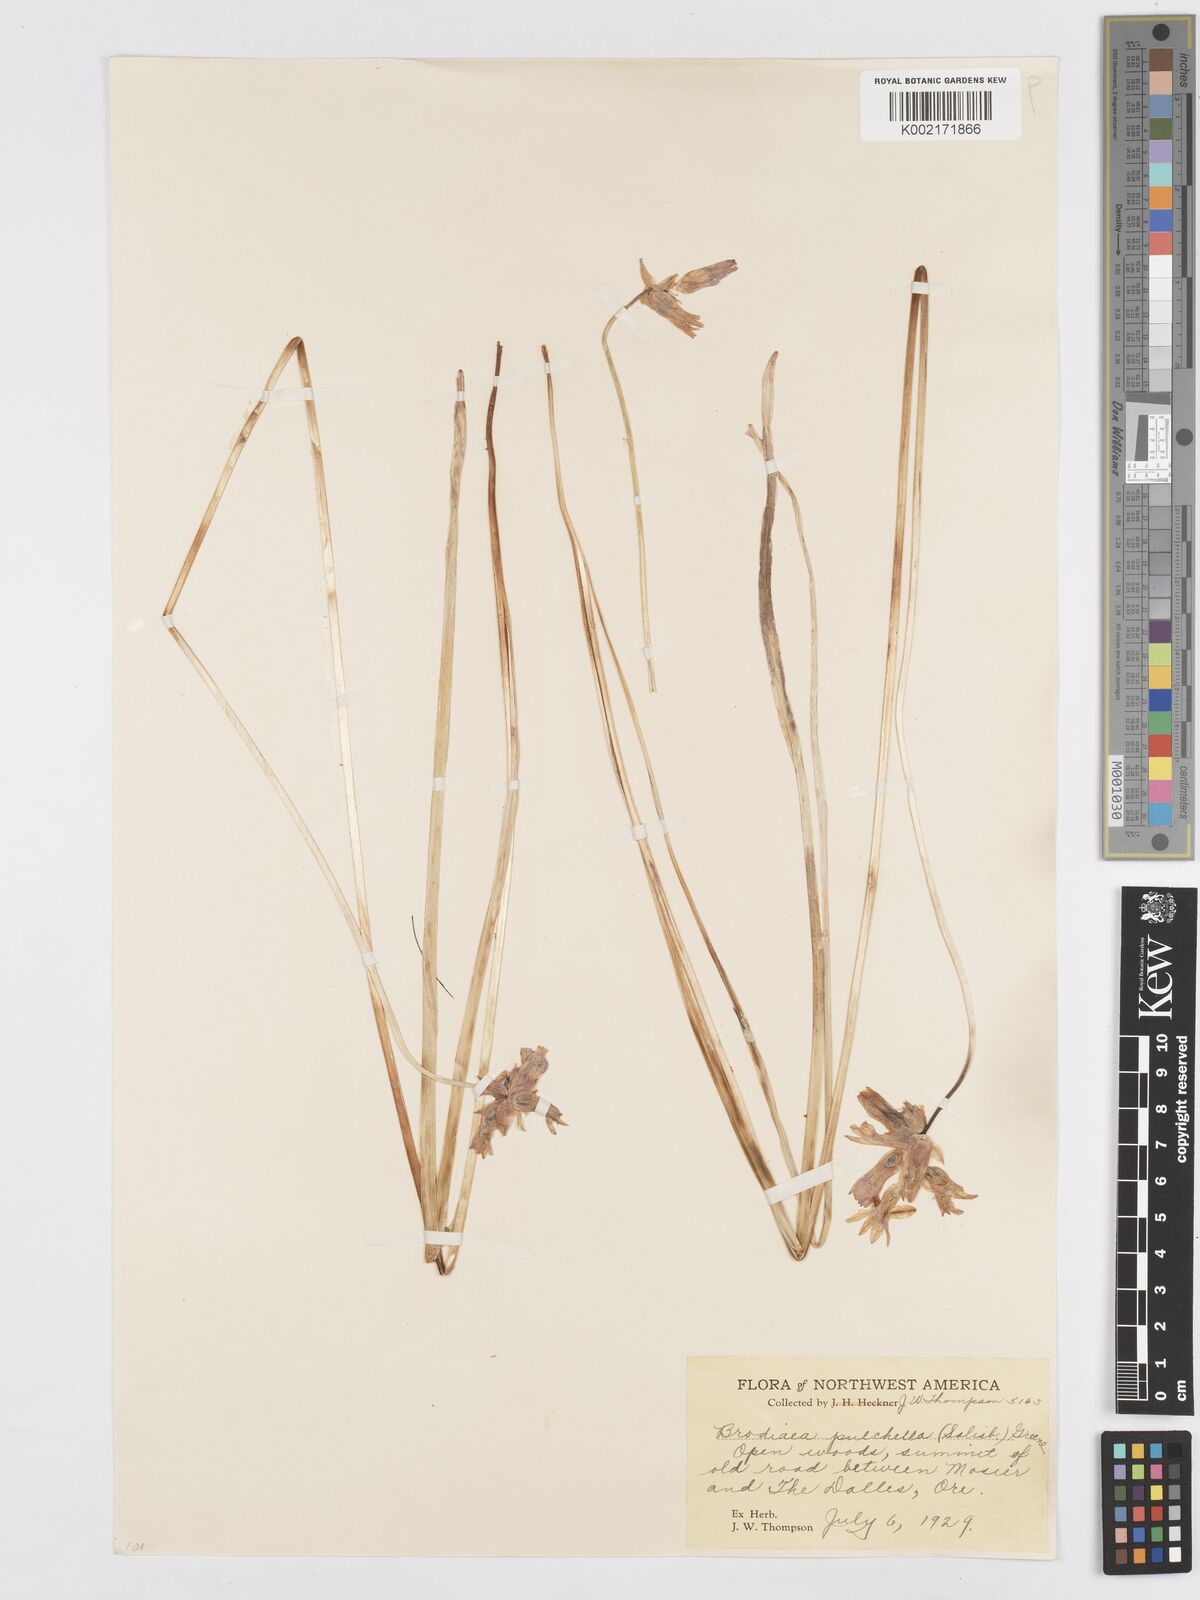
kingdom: Plantae
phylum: Tracheophyta
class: Liliopsida
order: Asparagales
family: Asparagaceae
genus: Dichelostemma
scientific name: Dichelostemma congestum
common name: Fork-tooth ookow
